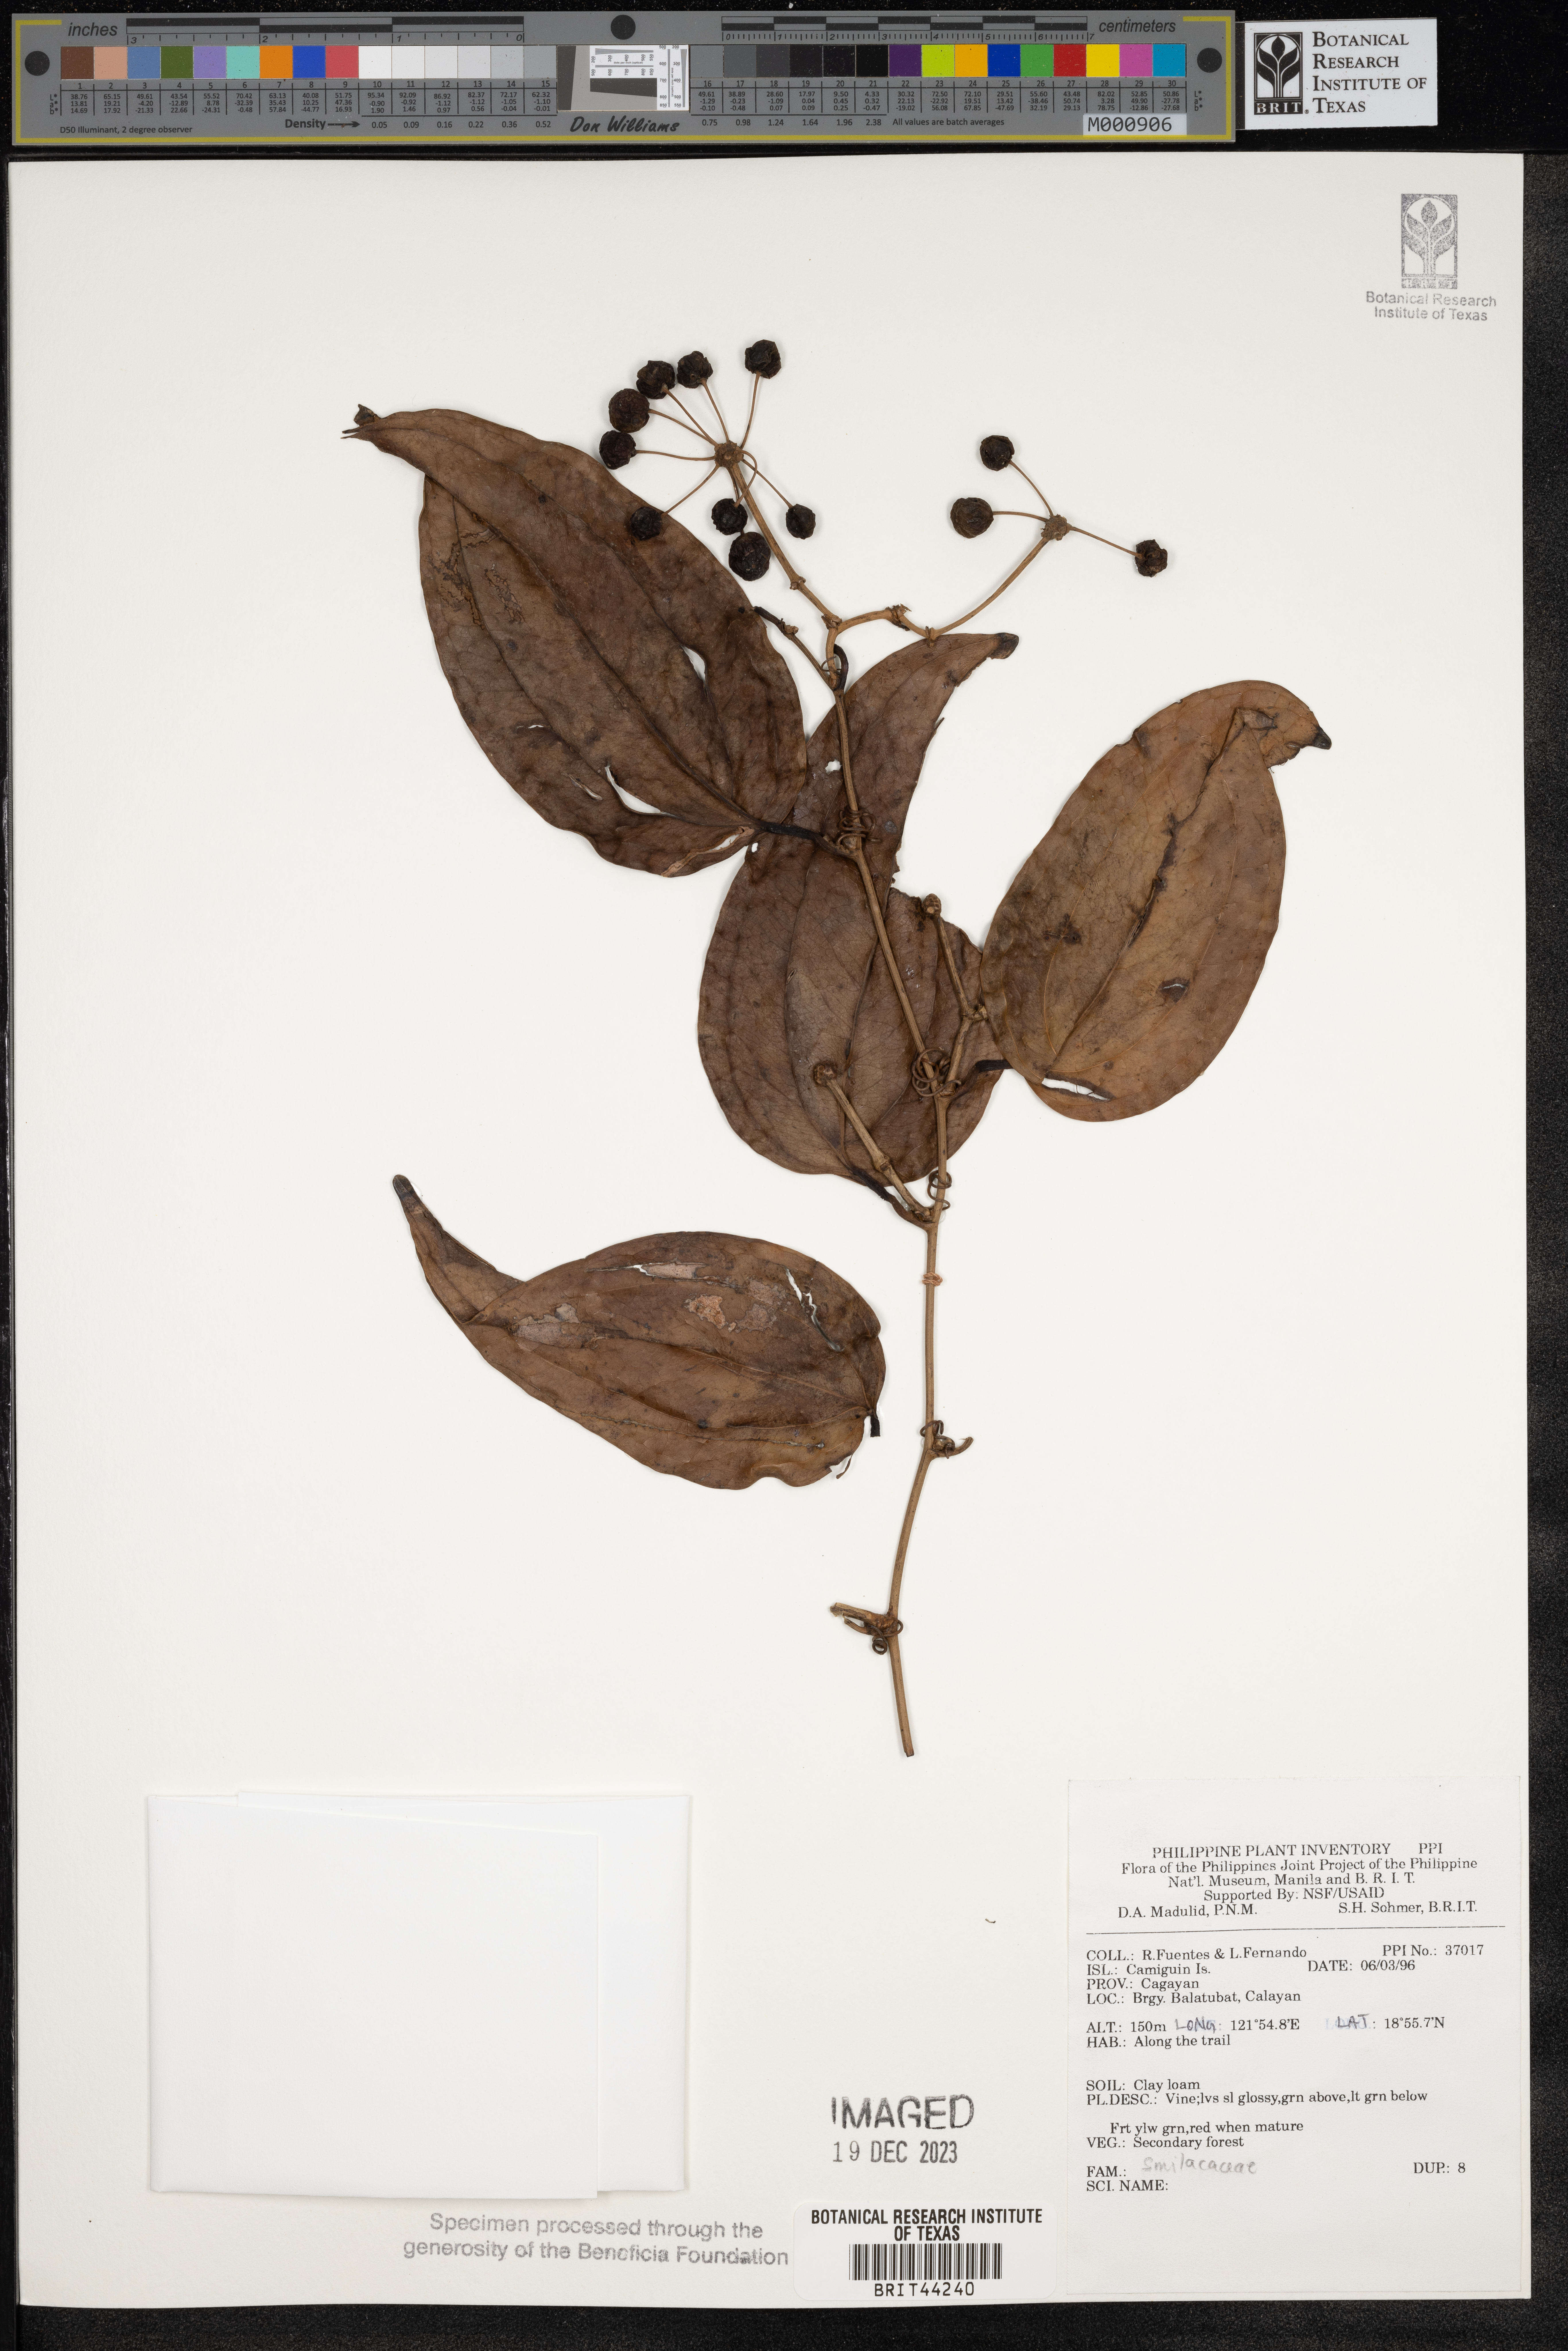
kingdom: Plantae
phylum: Tracheophyta
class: Liliopsida
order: Liliales
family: Smilacaceae
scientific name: Smilacaceae
